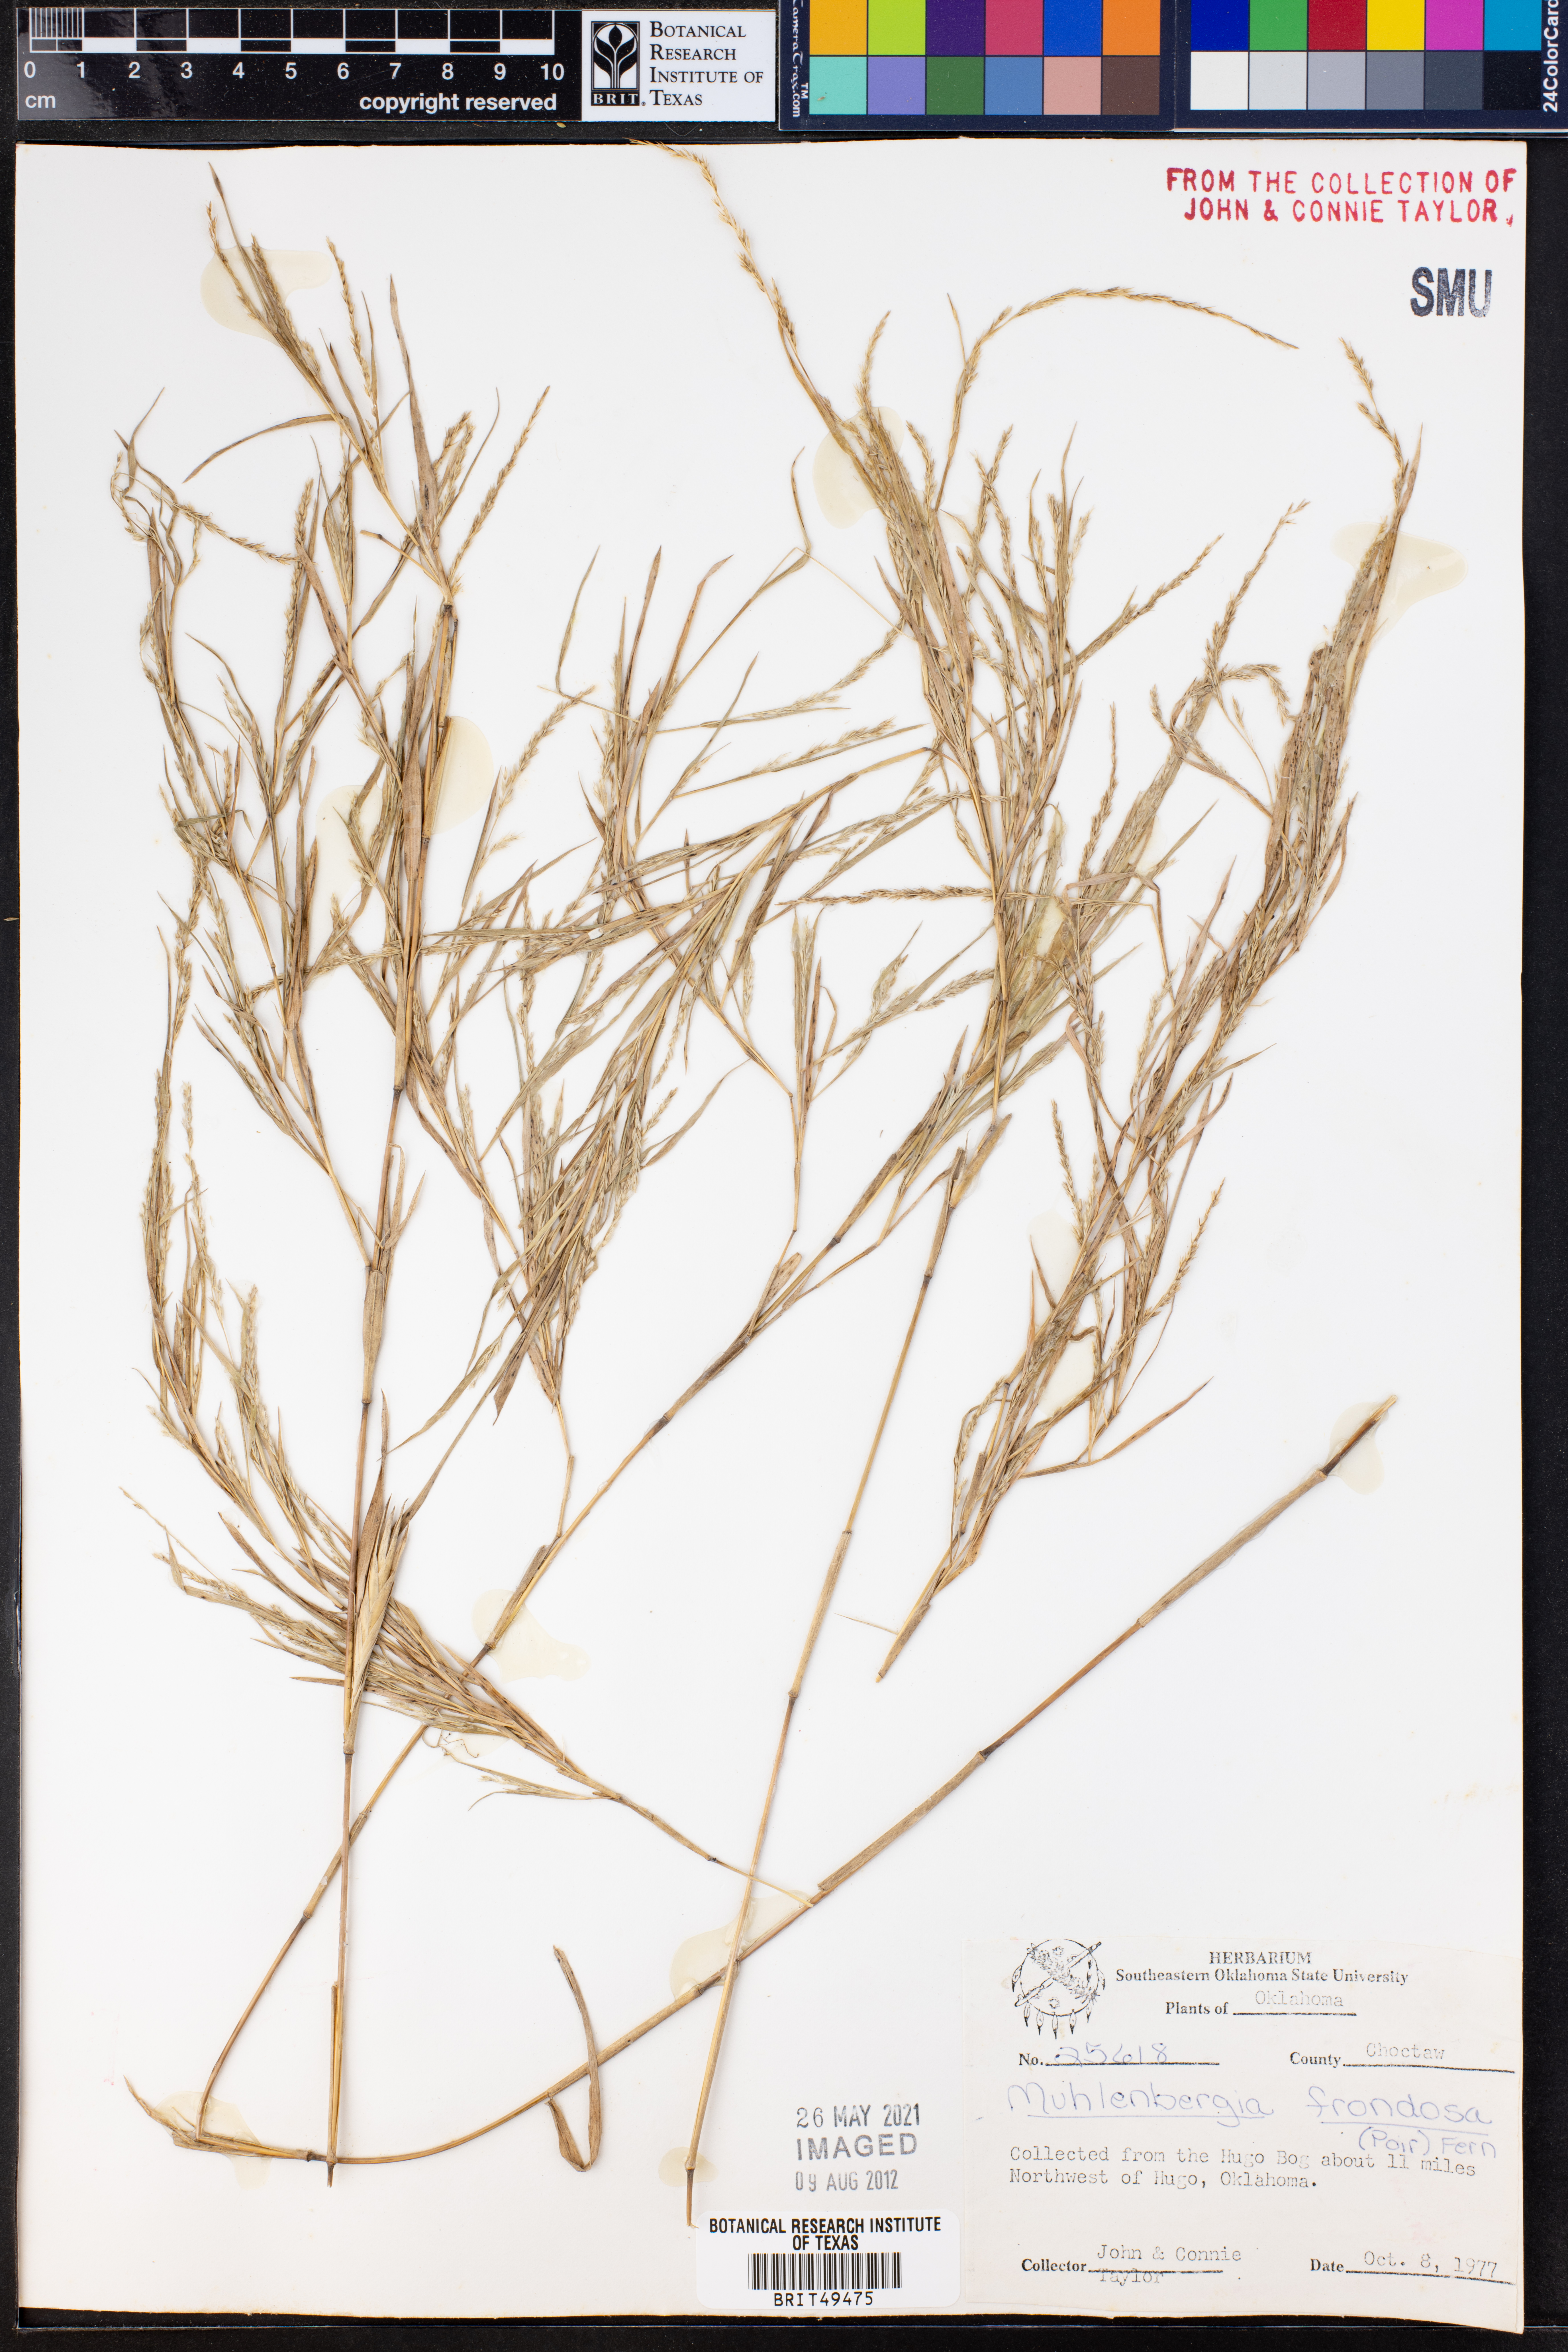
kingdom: Plantae
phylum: Tracheophyta
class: Liliopsida
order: Poales
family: Poaceae
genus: Muhlenbergia
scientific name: Muhlenbergia frondosa
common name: Common satingrass
